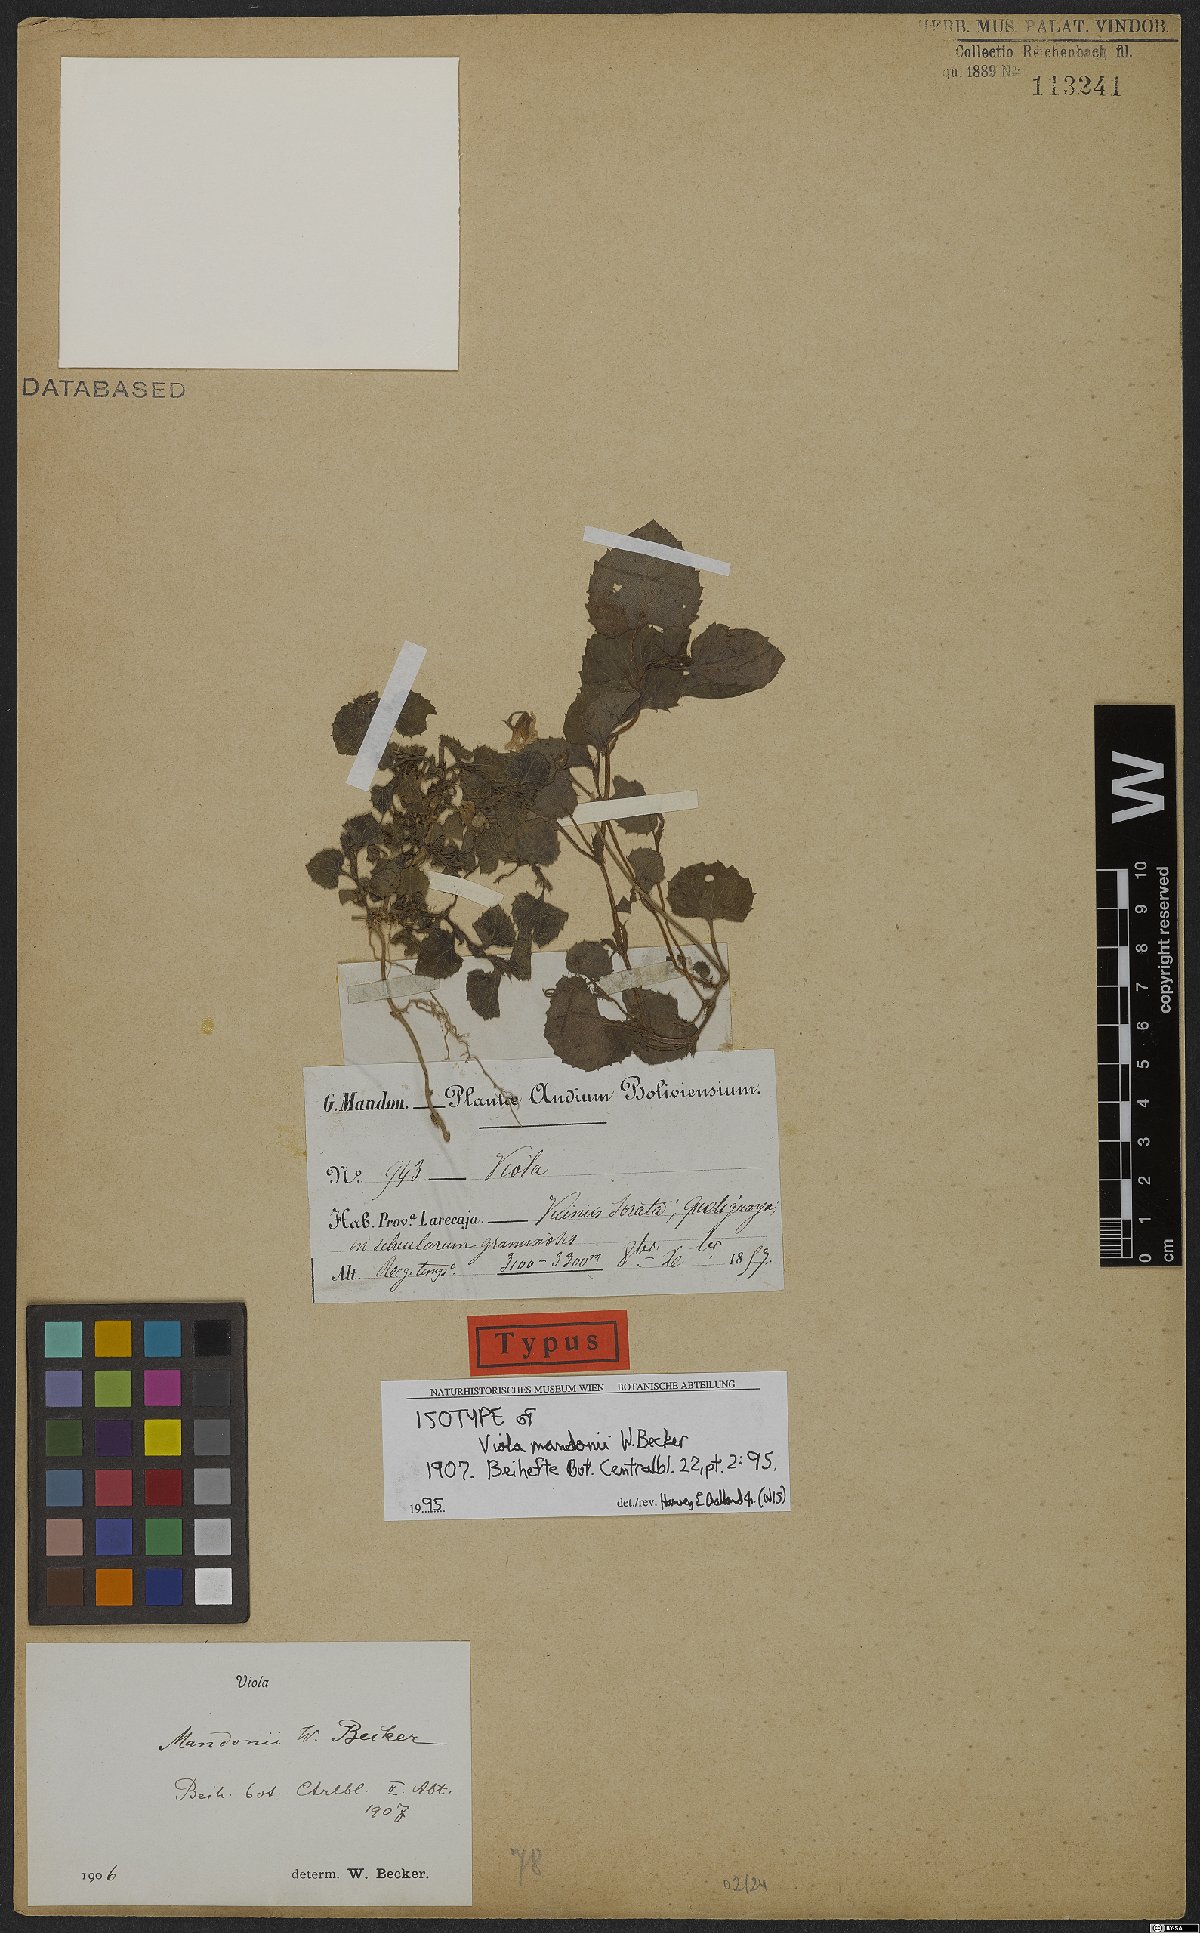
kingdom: Plantae
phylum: Tracheophyta
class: Magnoliopsida
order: Malpighiales
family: Violaceae
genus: Viola
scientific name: Viola mandonii
